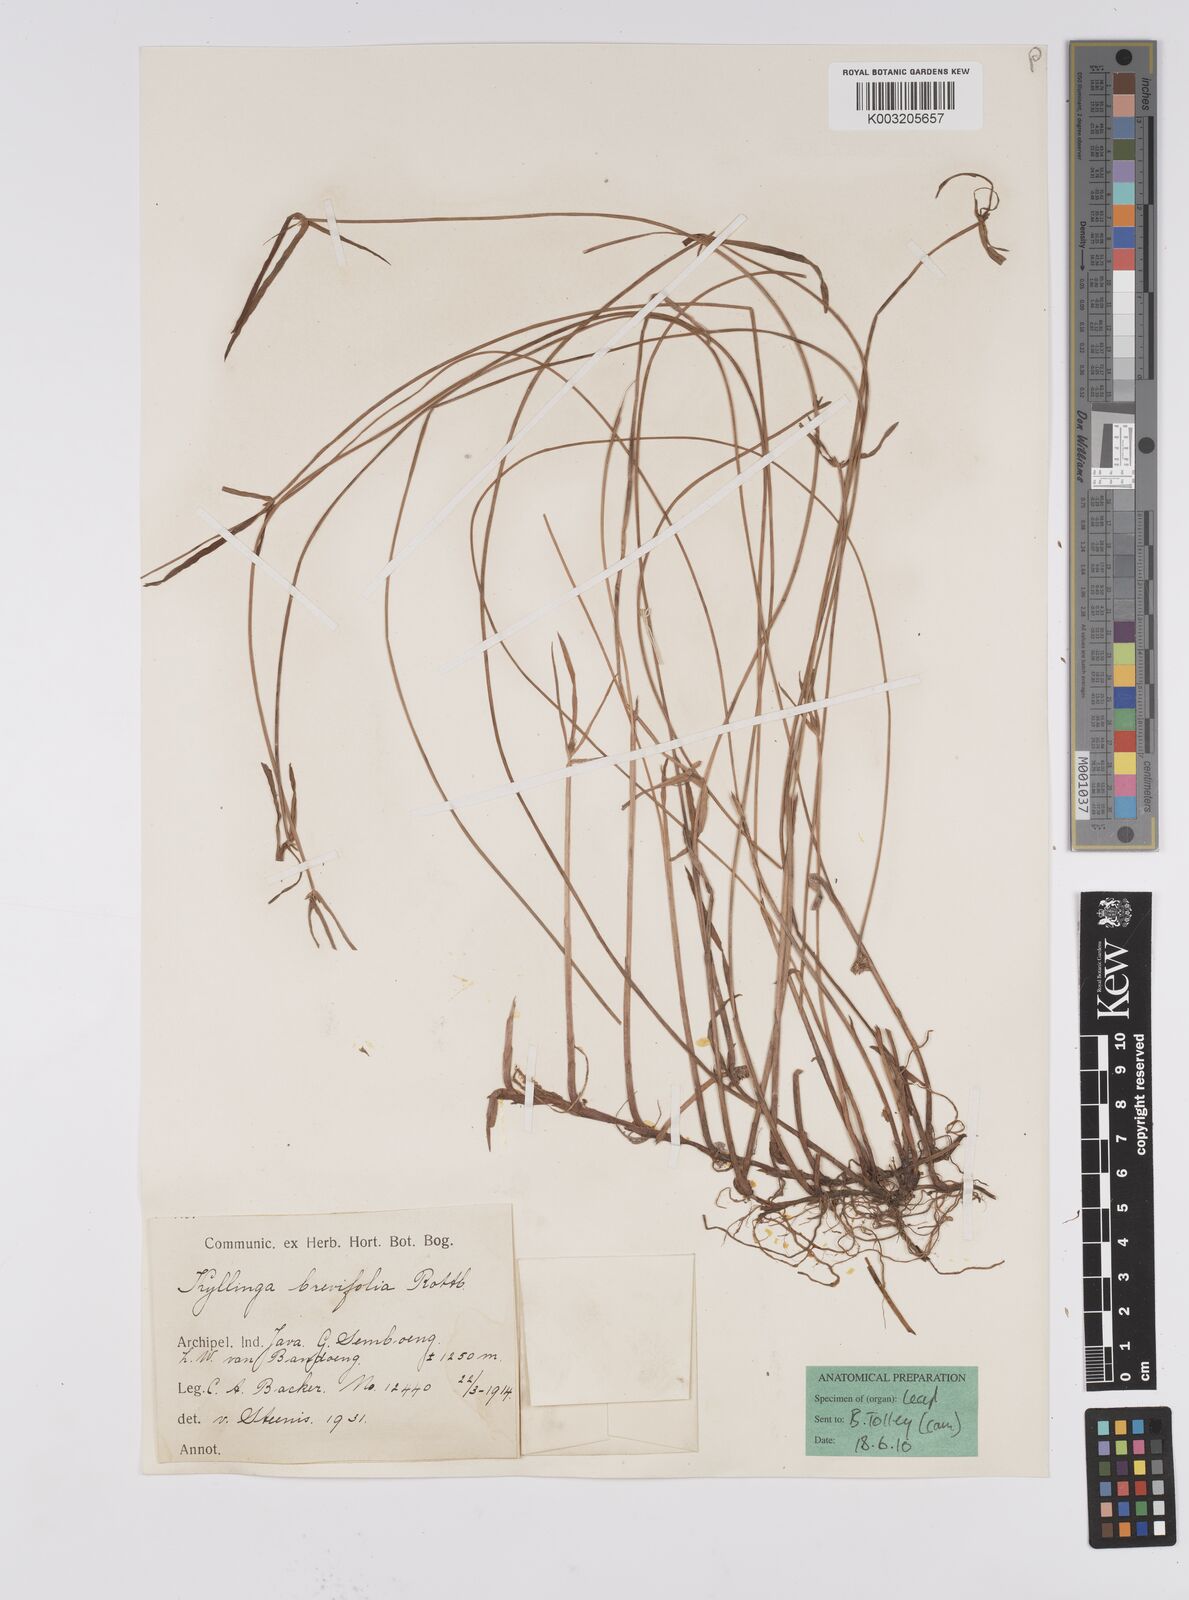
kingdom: Plantae
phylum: Tracheophyta
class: Liliopsida
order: Poales
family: Cyperaceae
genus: Cyperus
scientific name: Cyperus brevifolius
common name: Globe kyllinga
